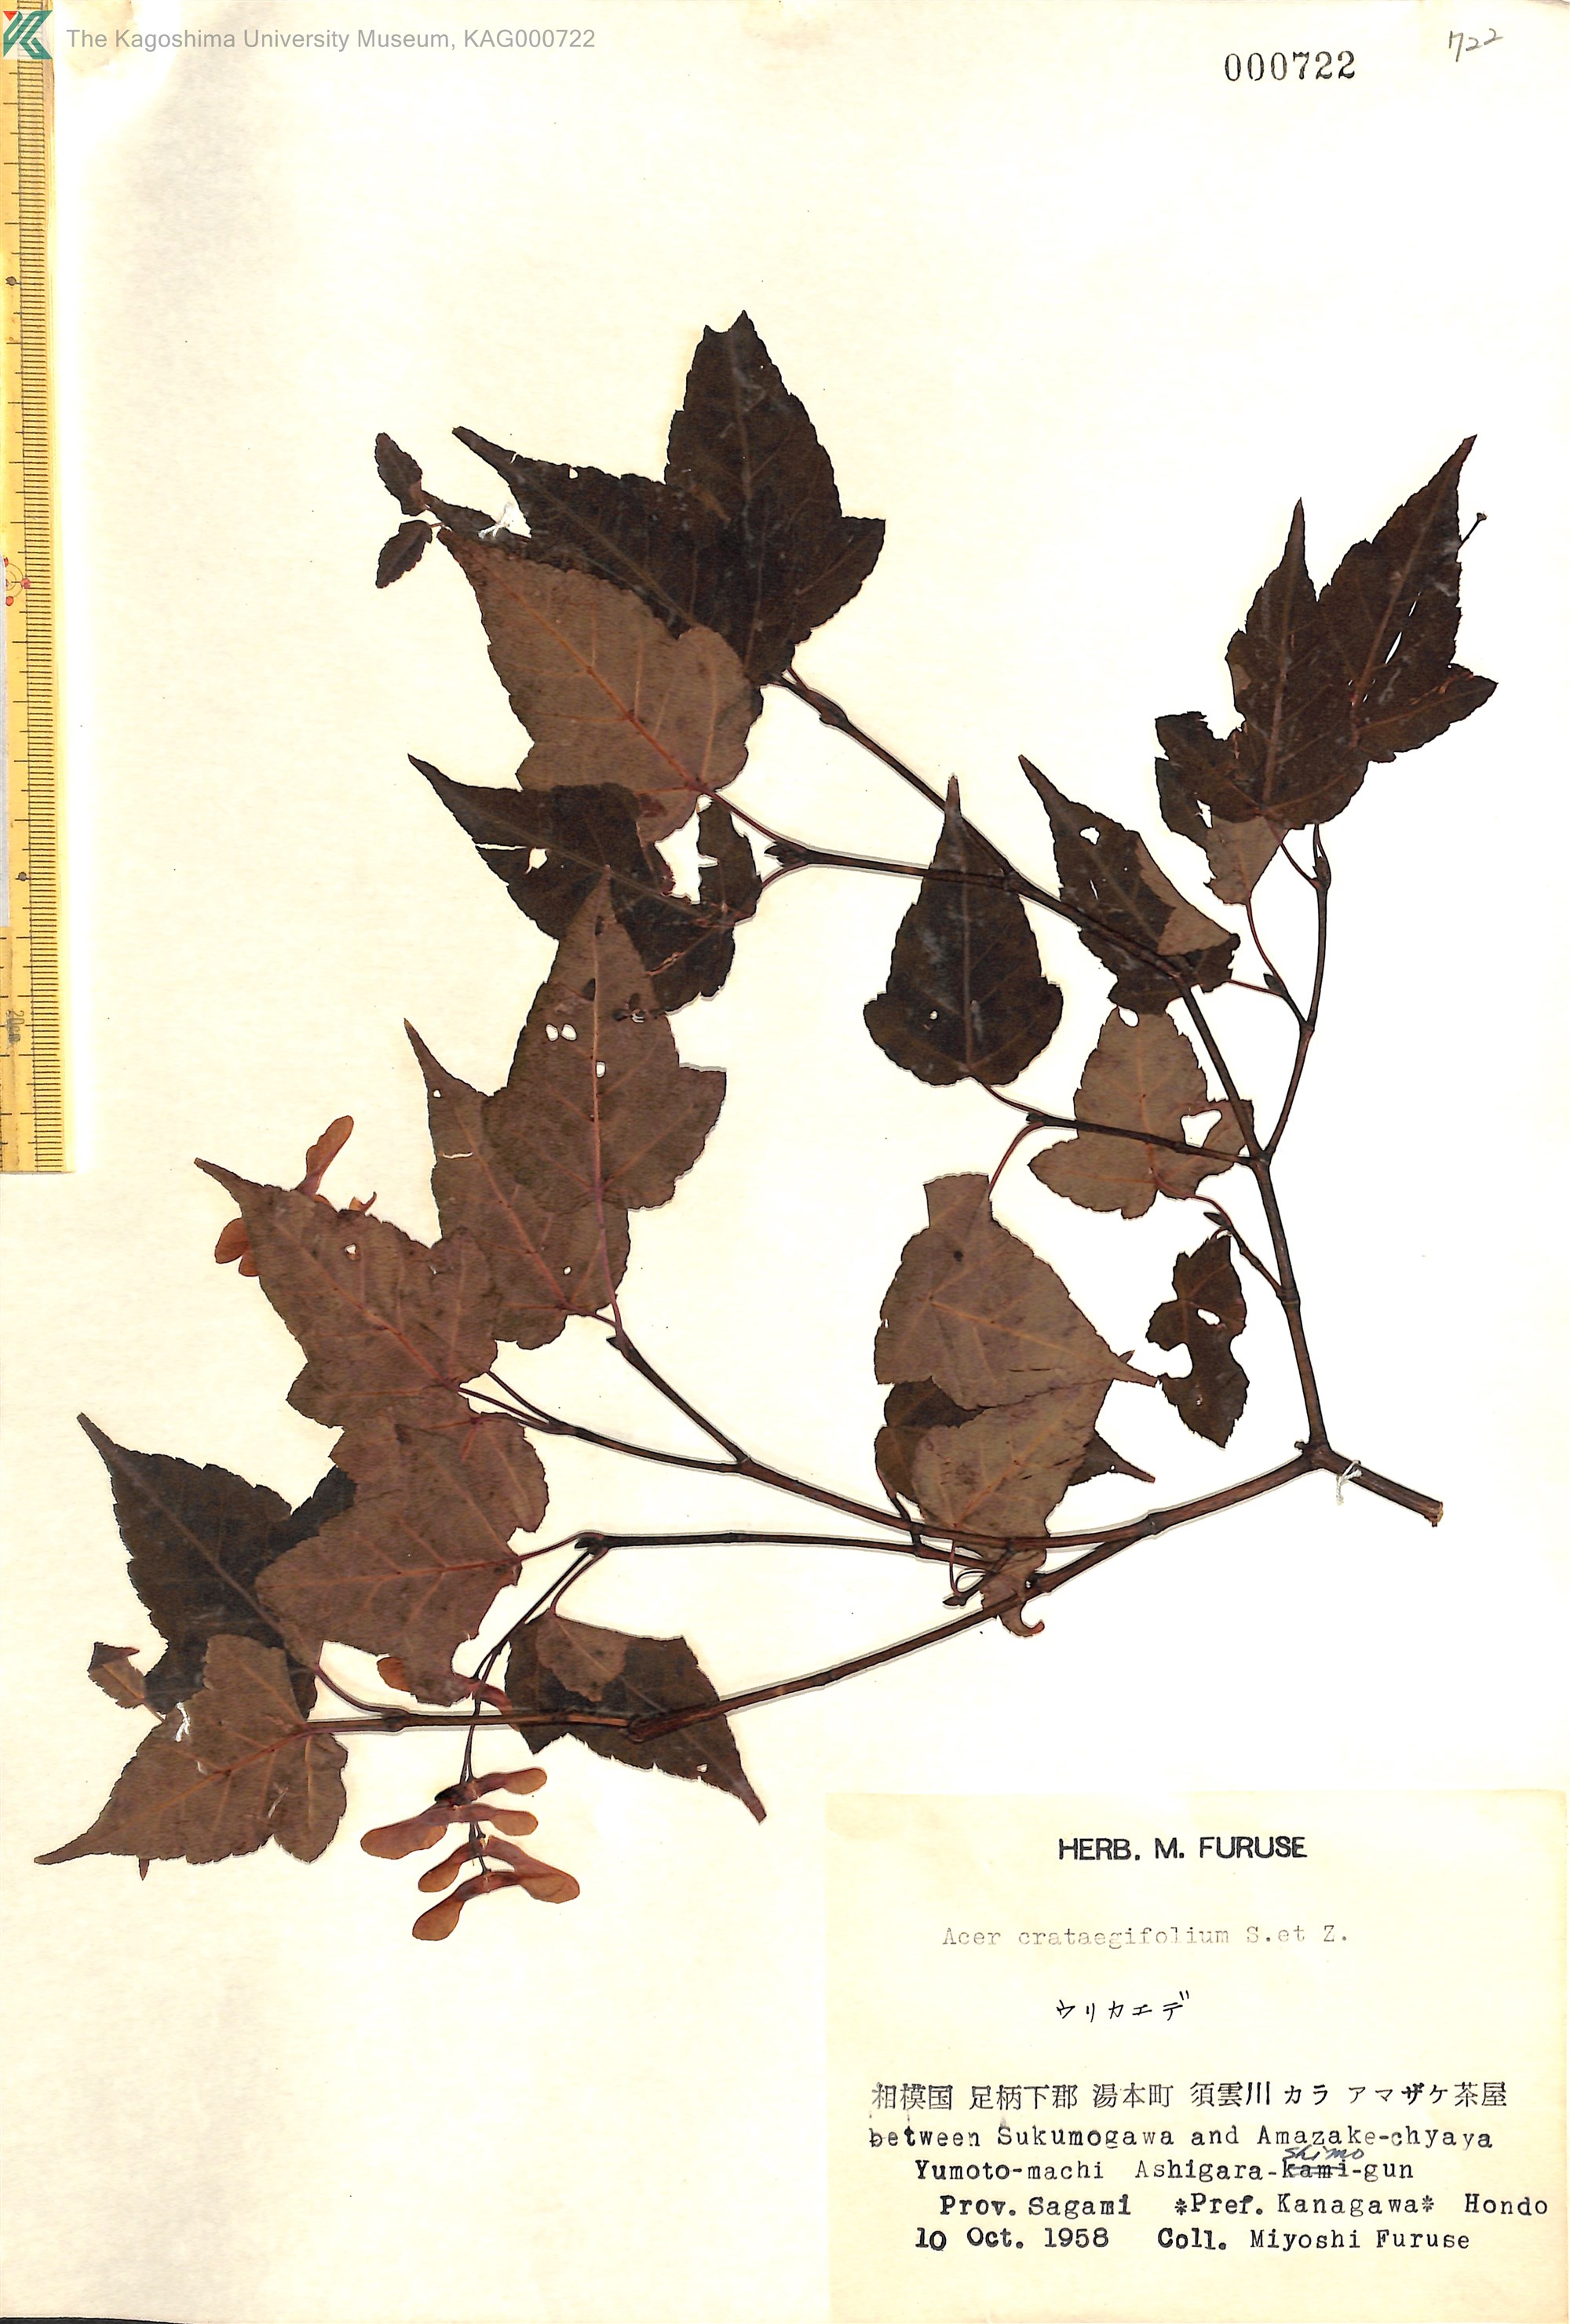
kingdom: Plantae
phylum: Tracheophyta
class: Magnoliopsida
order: Sapindales
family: Sapindaceae
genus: Acer
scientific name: Acer crataegifolium
